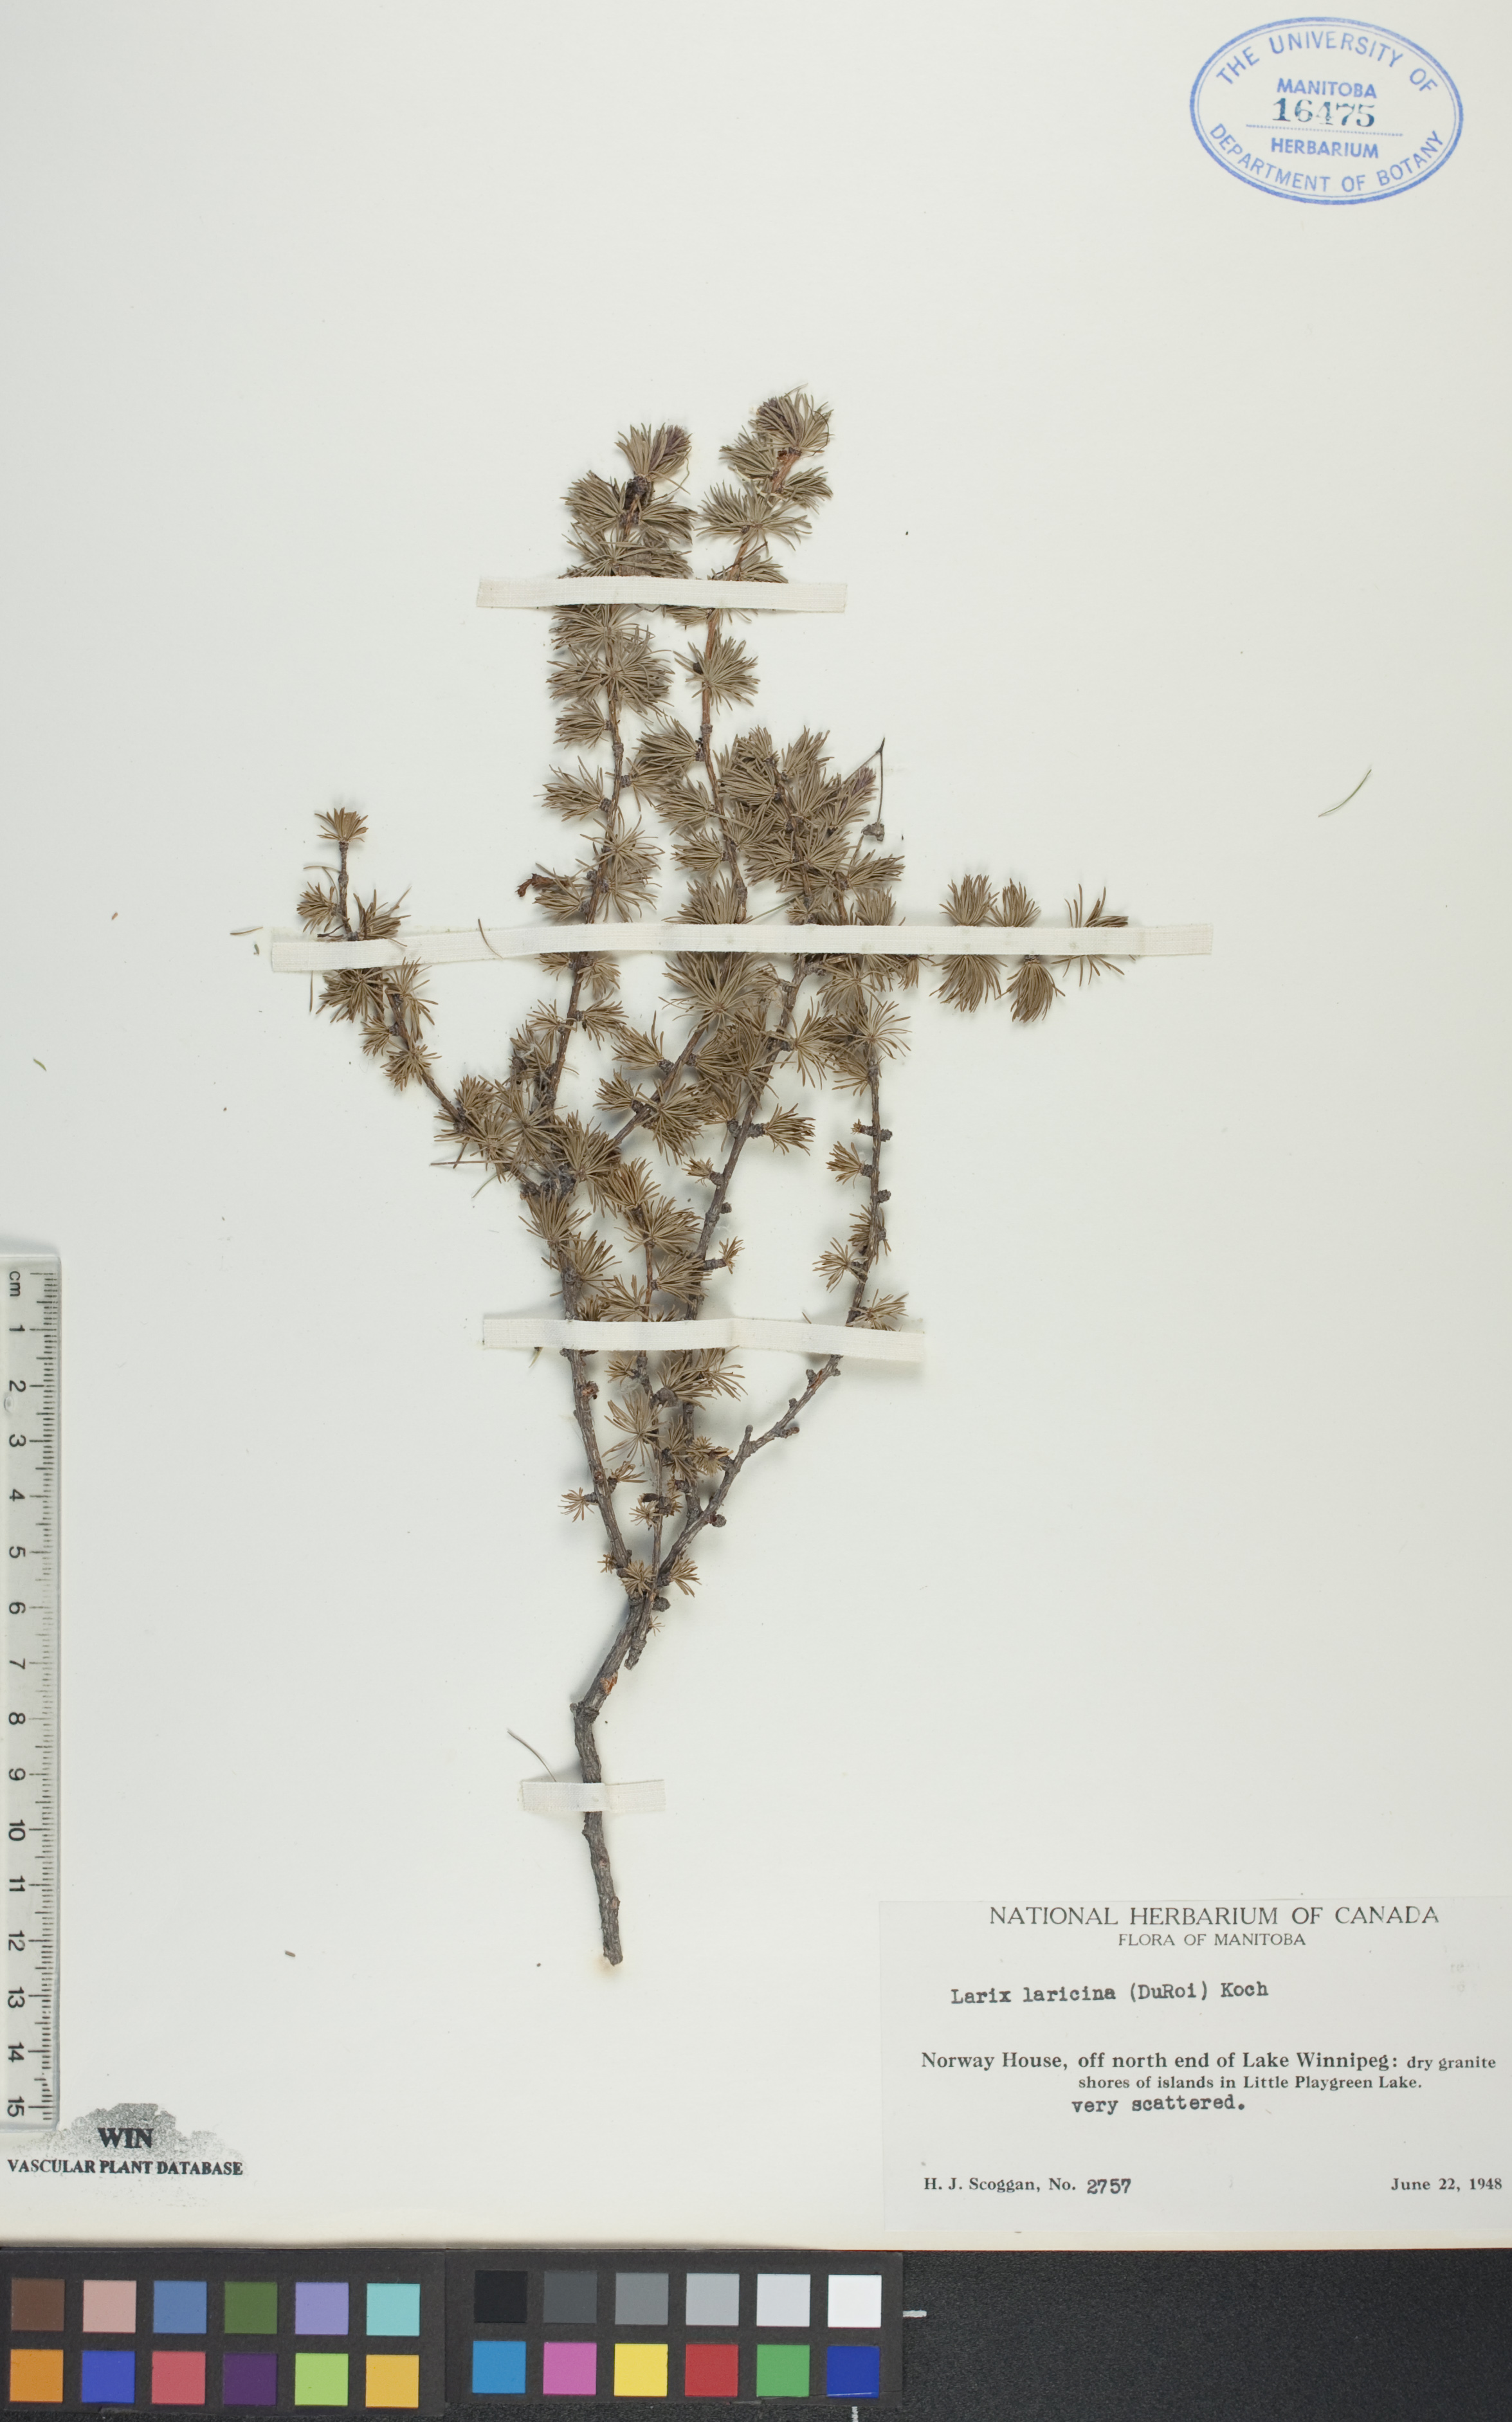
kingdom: Plantae
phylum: Tracheophyta
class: Pinopsida
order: Pinales
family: Pinaceae
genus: Larix
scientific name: Larix laricina
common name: American larch
